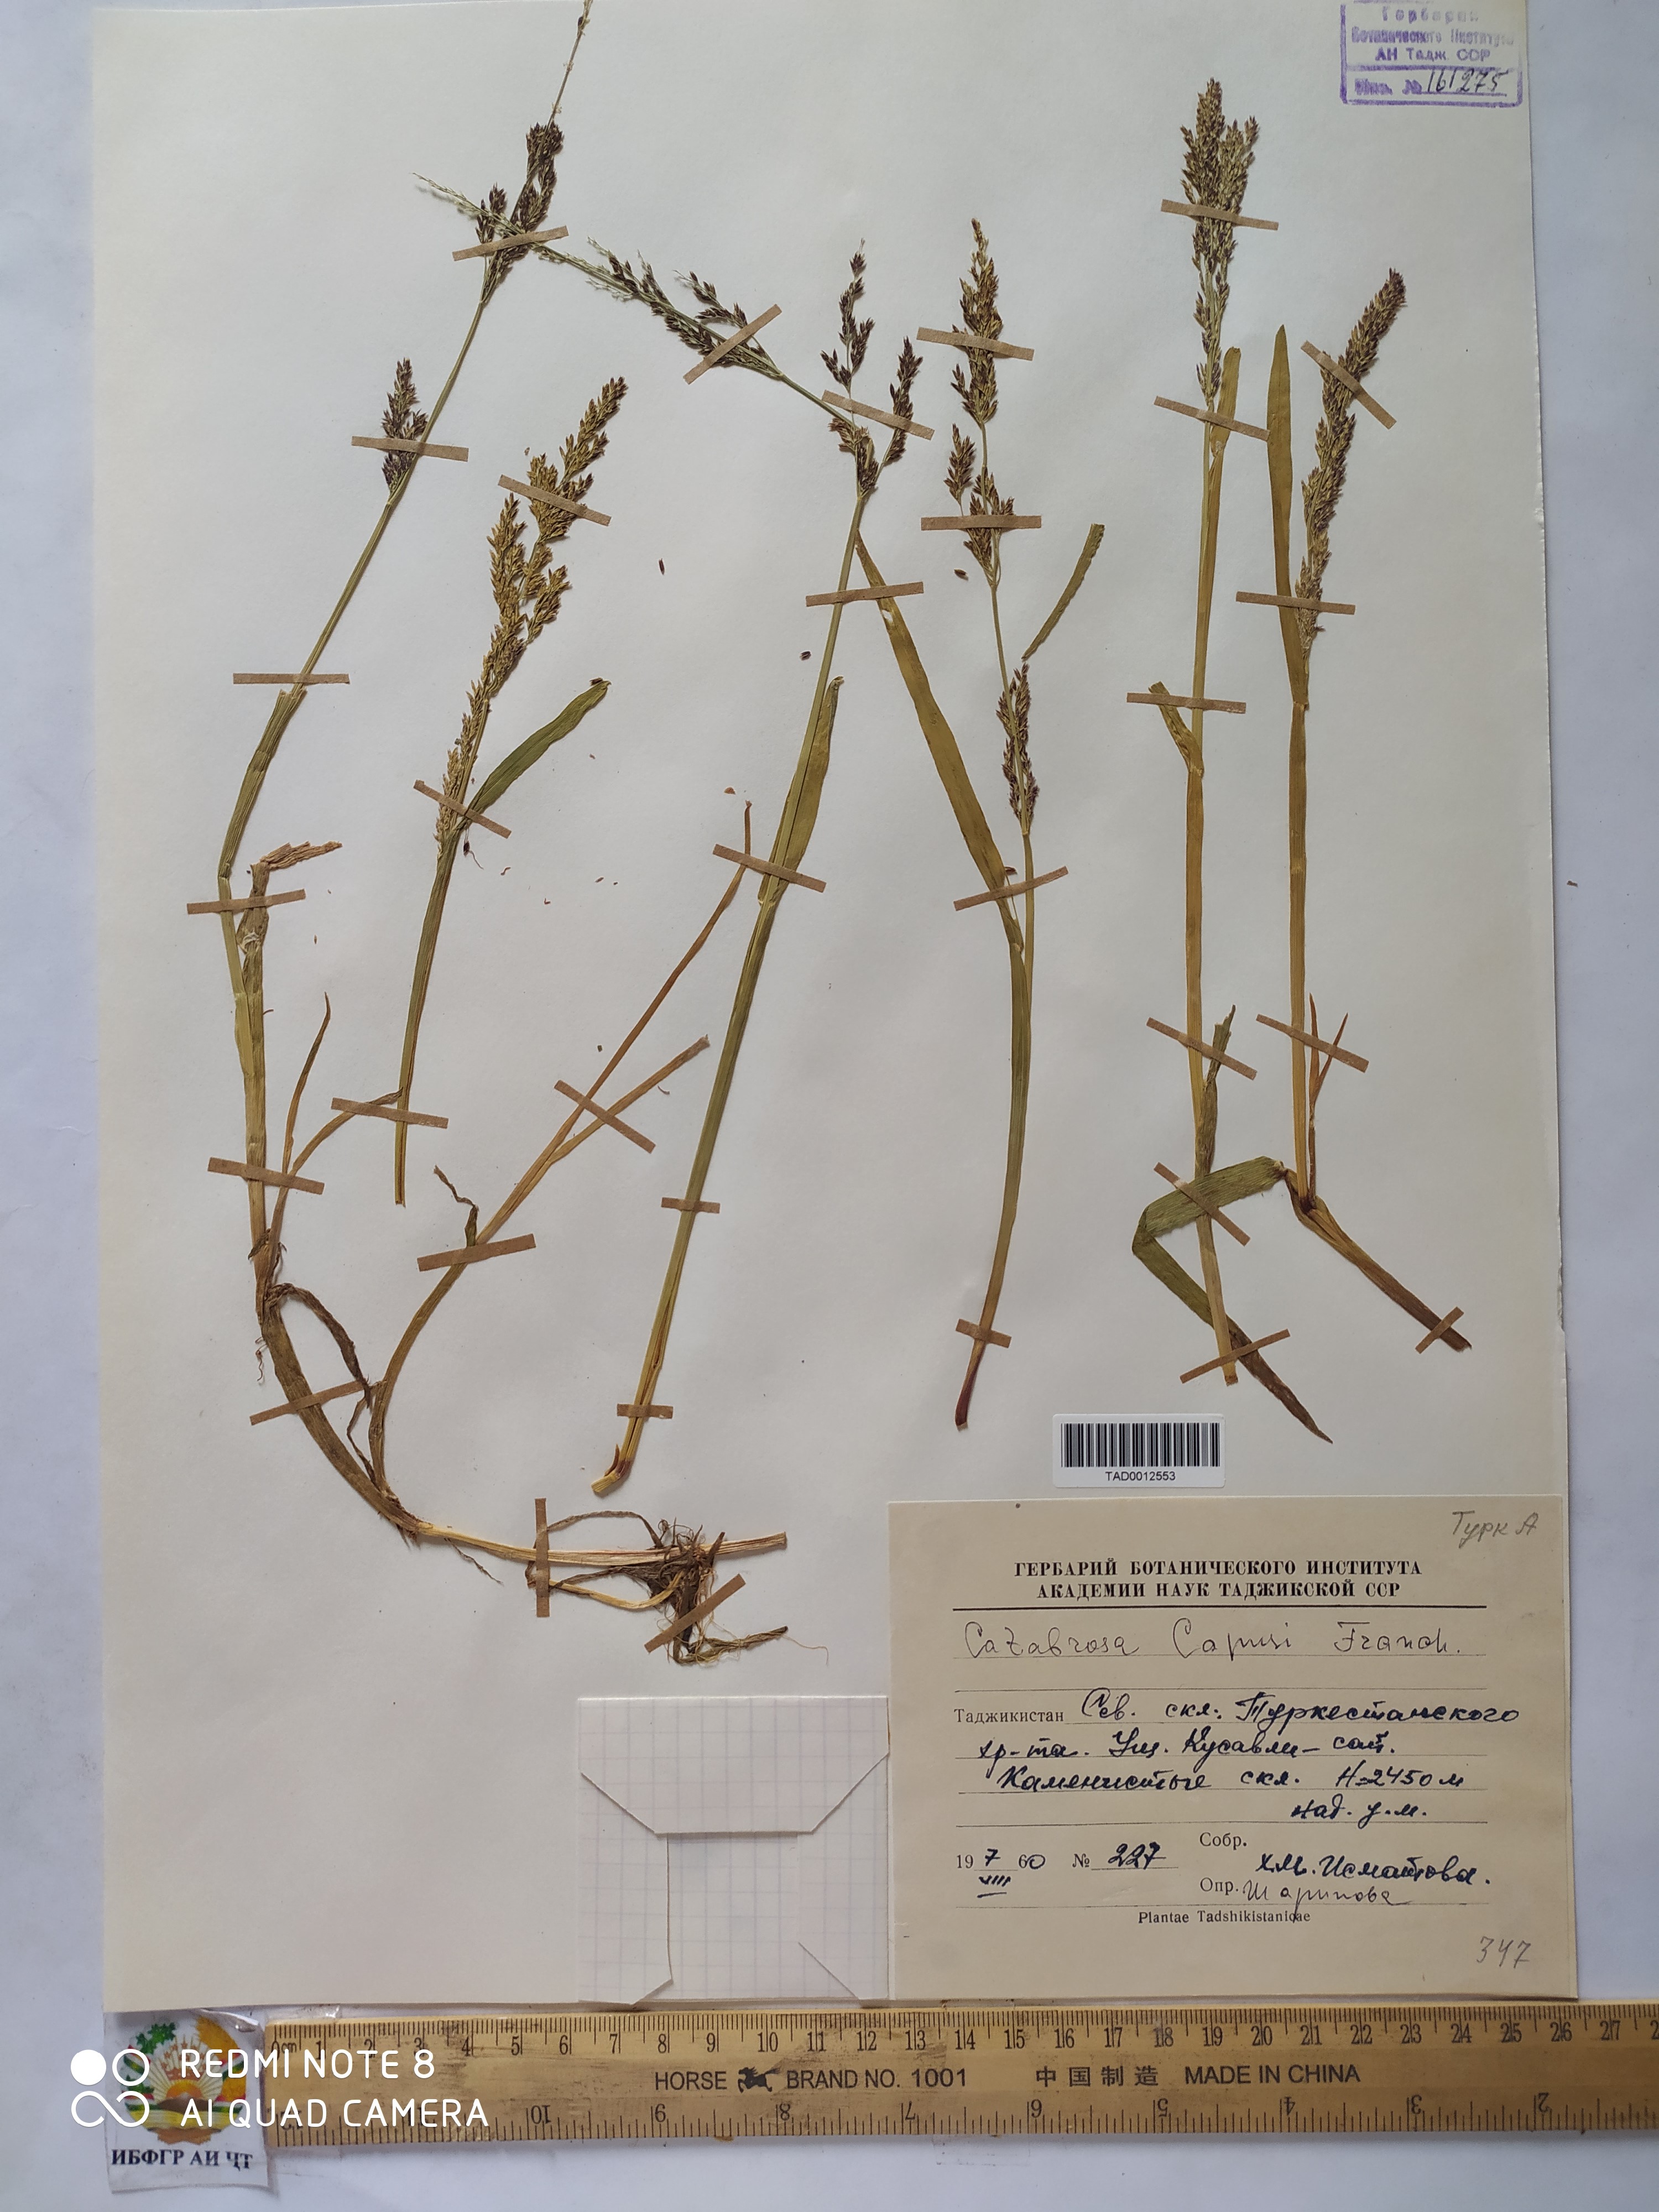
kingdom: Plantae
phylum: Tracheophyta
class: Liliopsida
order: Poales
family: Poaceae
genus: Catabrosa
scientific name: Catabrosa aquatica
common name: Whorl-grass
